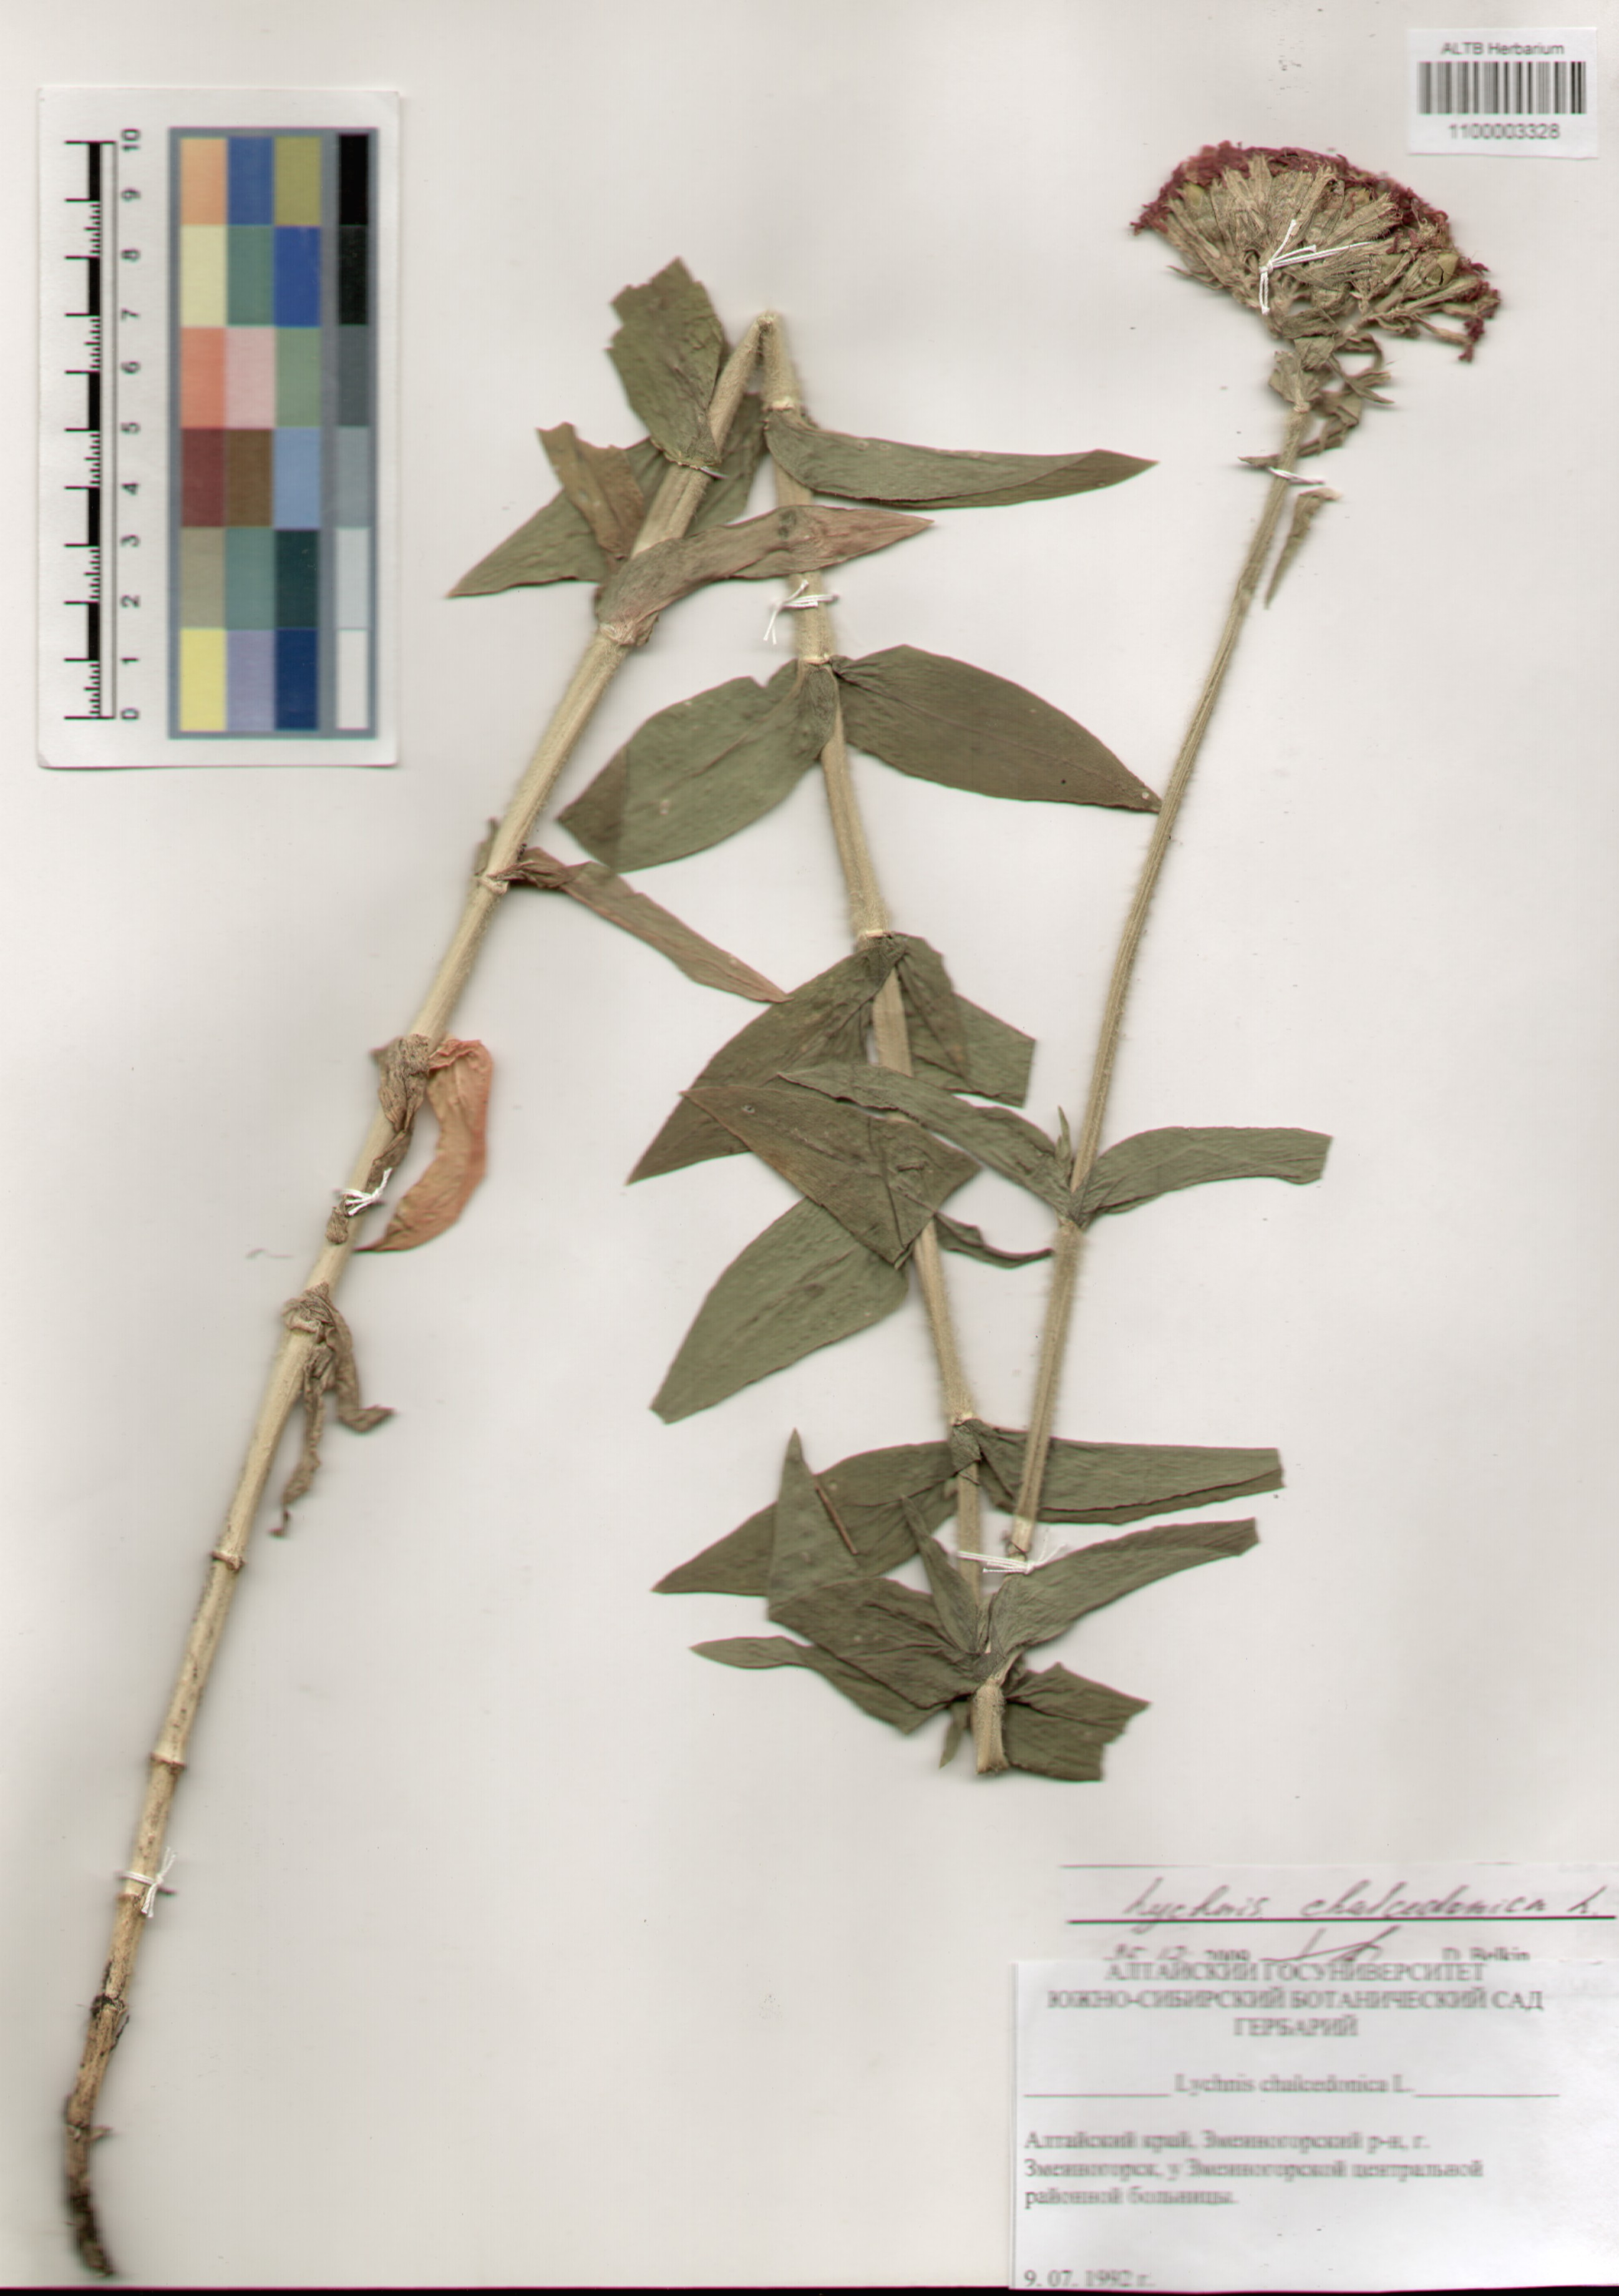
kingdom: Plantae
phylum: Tracheophyta
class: Magnoliopsida
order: Caryophyllales
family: Caryophyllaceae
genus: Silene
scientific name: Silene chalcedonica
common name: Maltese-cross
